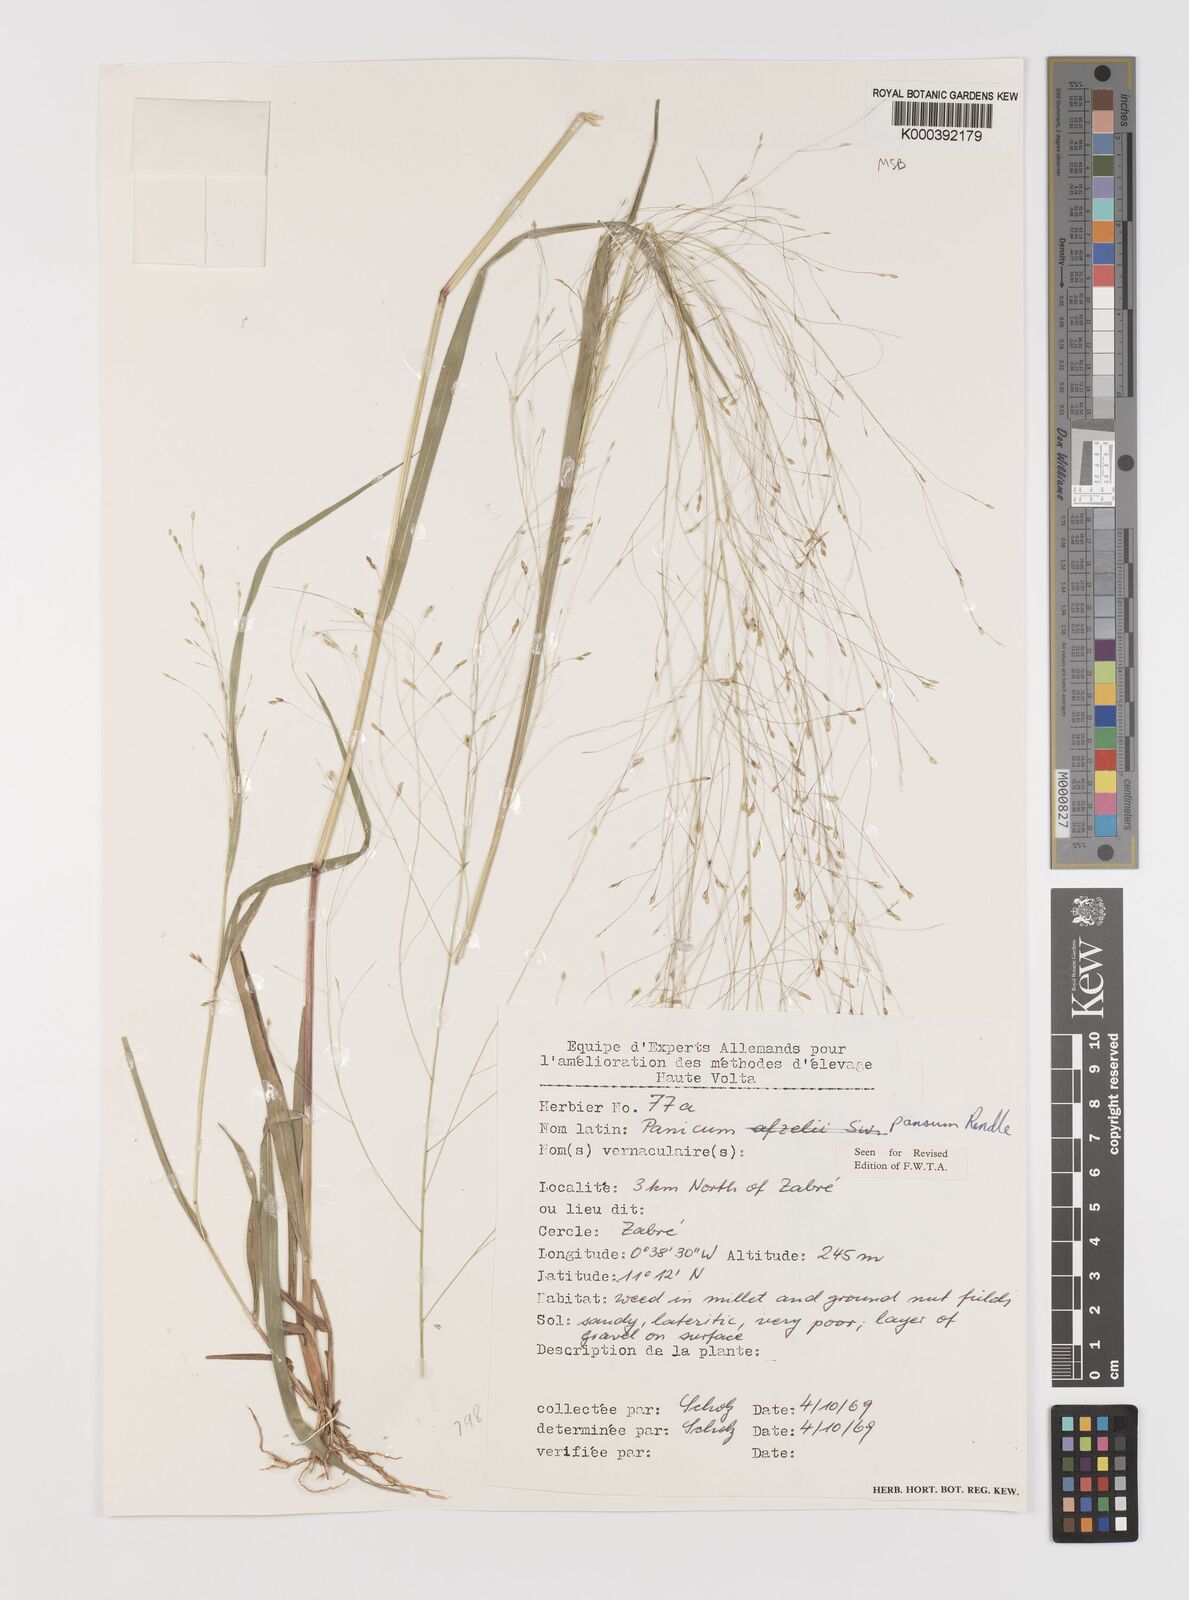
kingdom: Plantae
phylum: Tracheophyta
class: Liliopsida
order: Poales
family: Poaceae
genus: Panicum
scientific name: Panicum pansum
